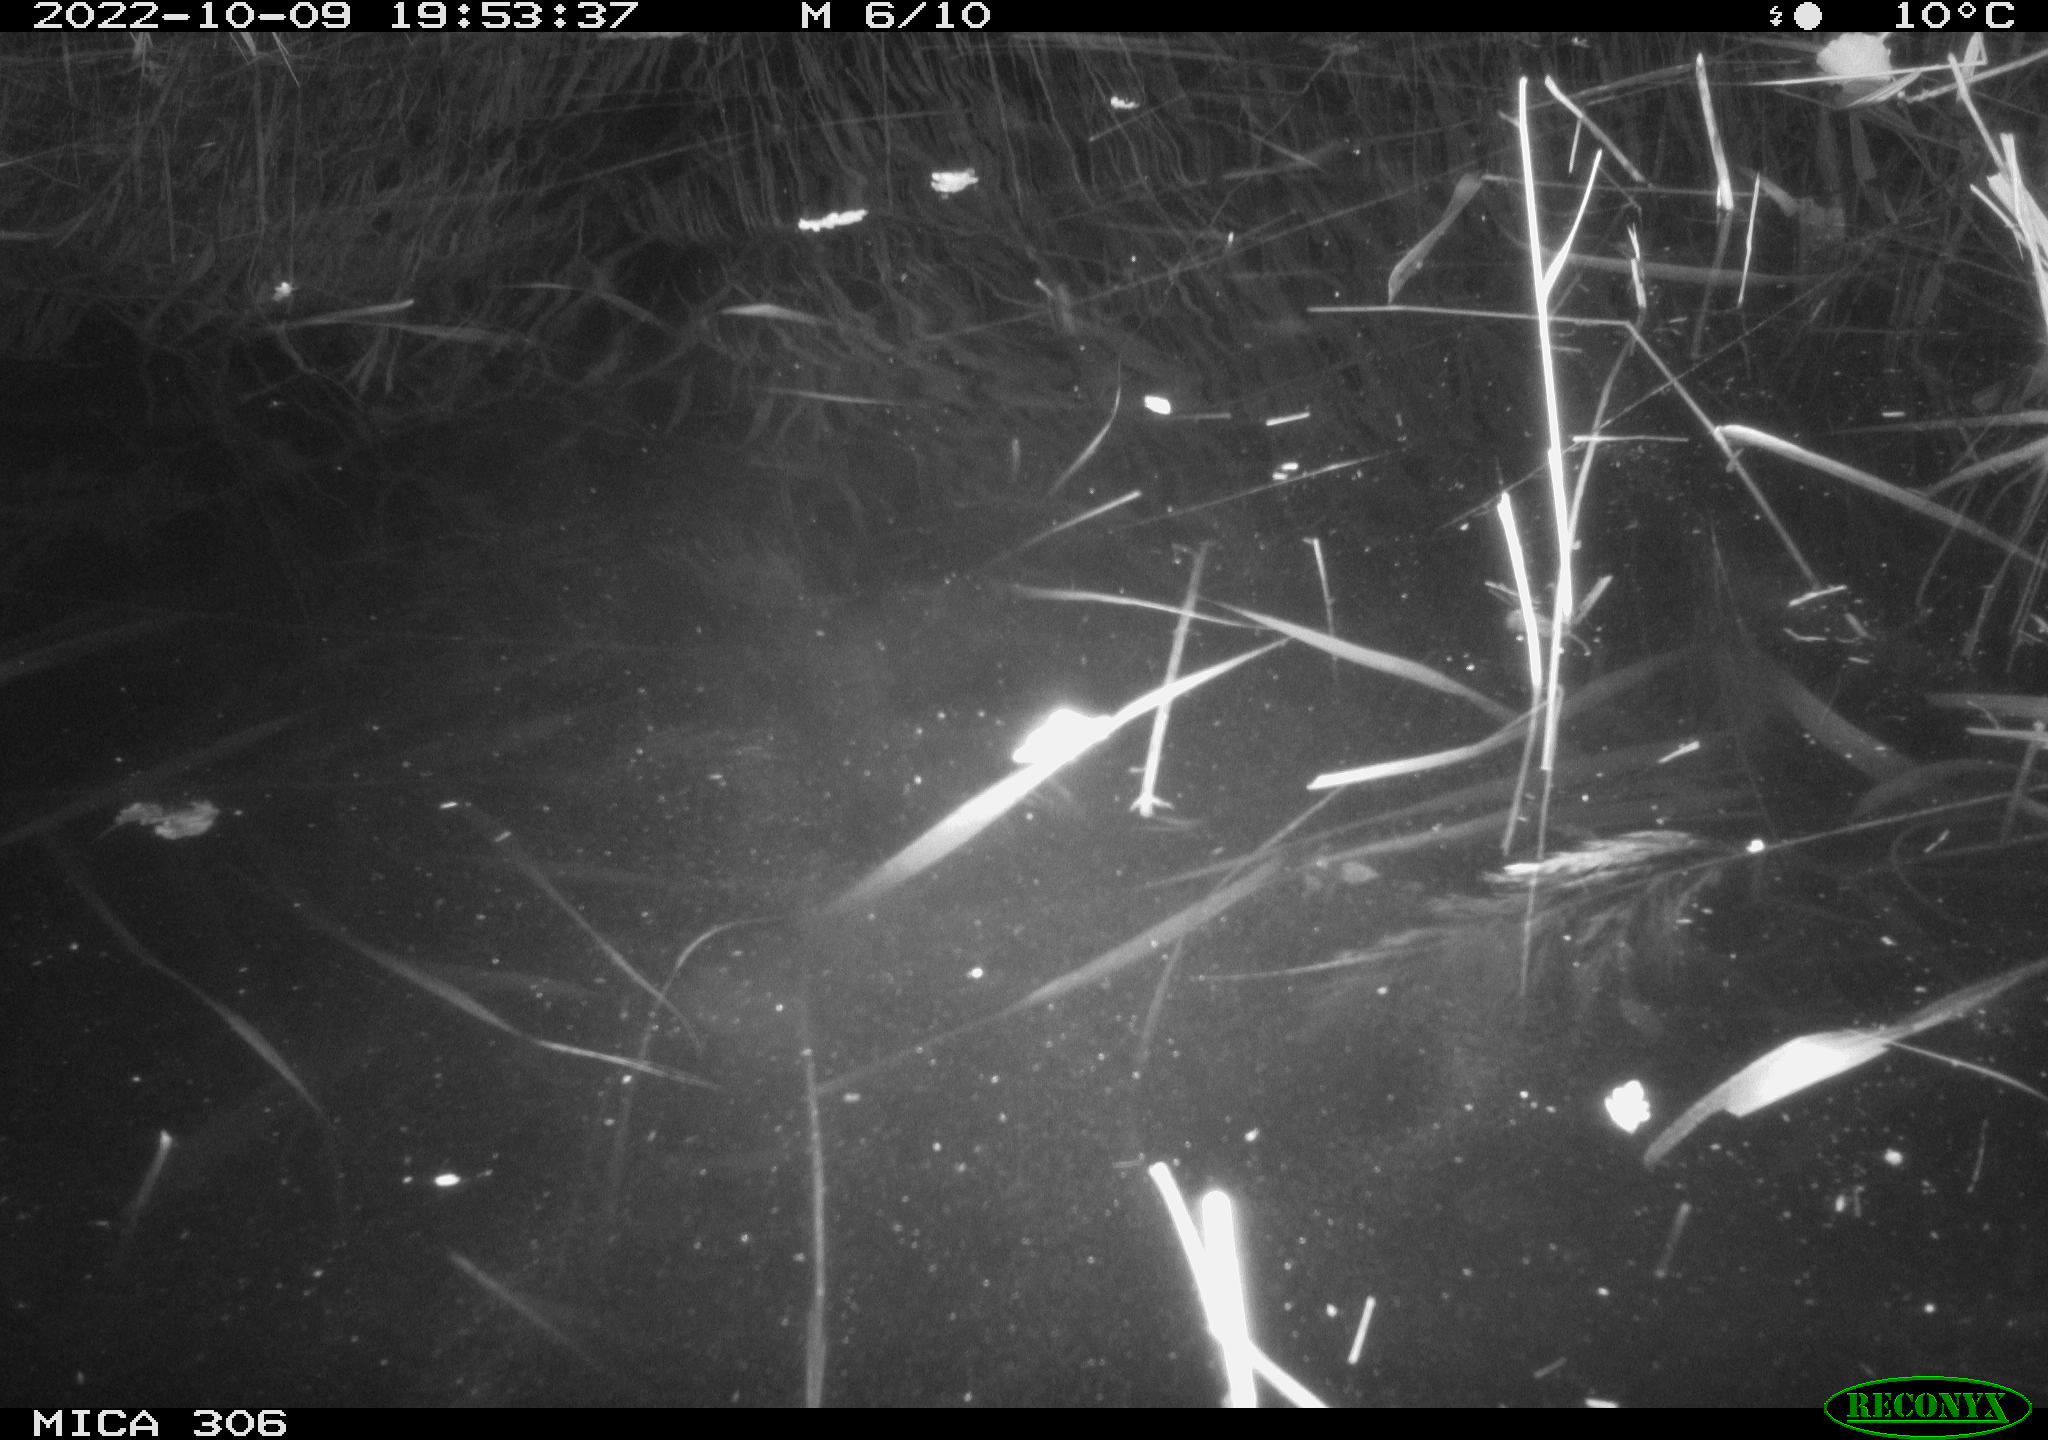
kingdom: Animalia
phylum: Chordata
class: Mammalia
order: Rodentia
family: Muridae
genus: Rattus
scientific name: Rattus norvegicus
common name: Brown rat
